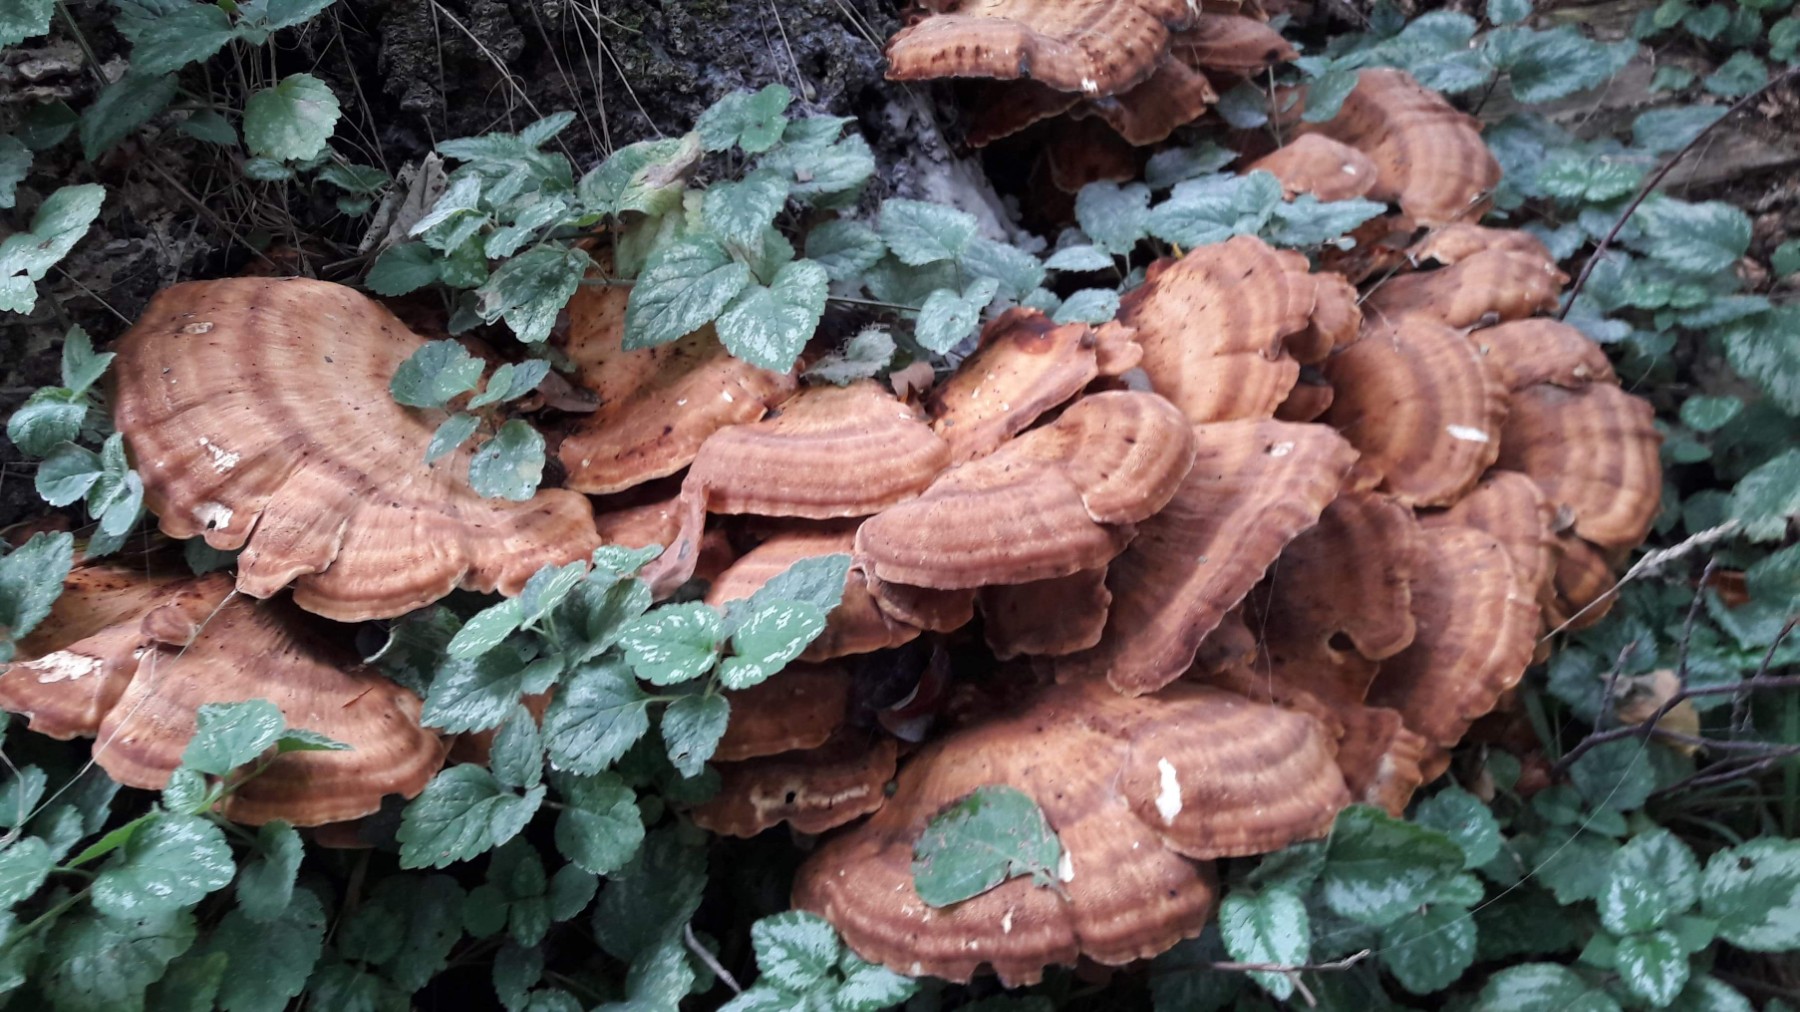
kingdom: Fungi
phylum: Basidiomycota
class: Agaricomycetes
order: Polyporales
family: Meripilaceae
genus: Meripilus
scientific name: Meripilus giganteus
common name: kæmpeporesvamp
